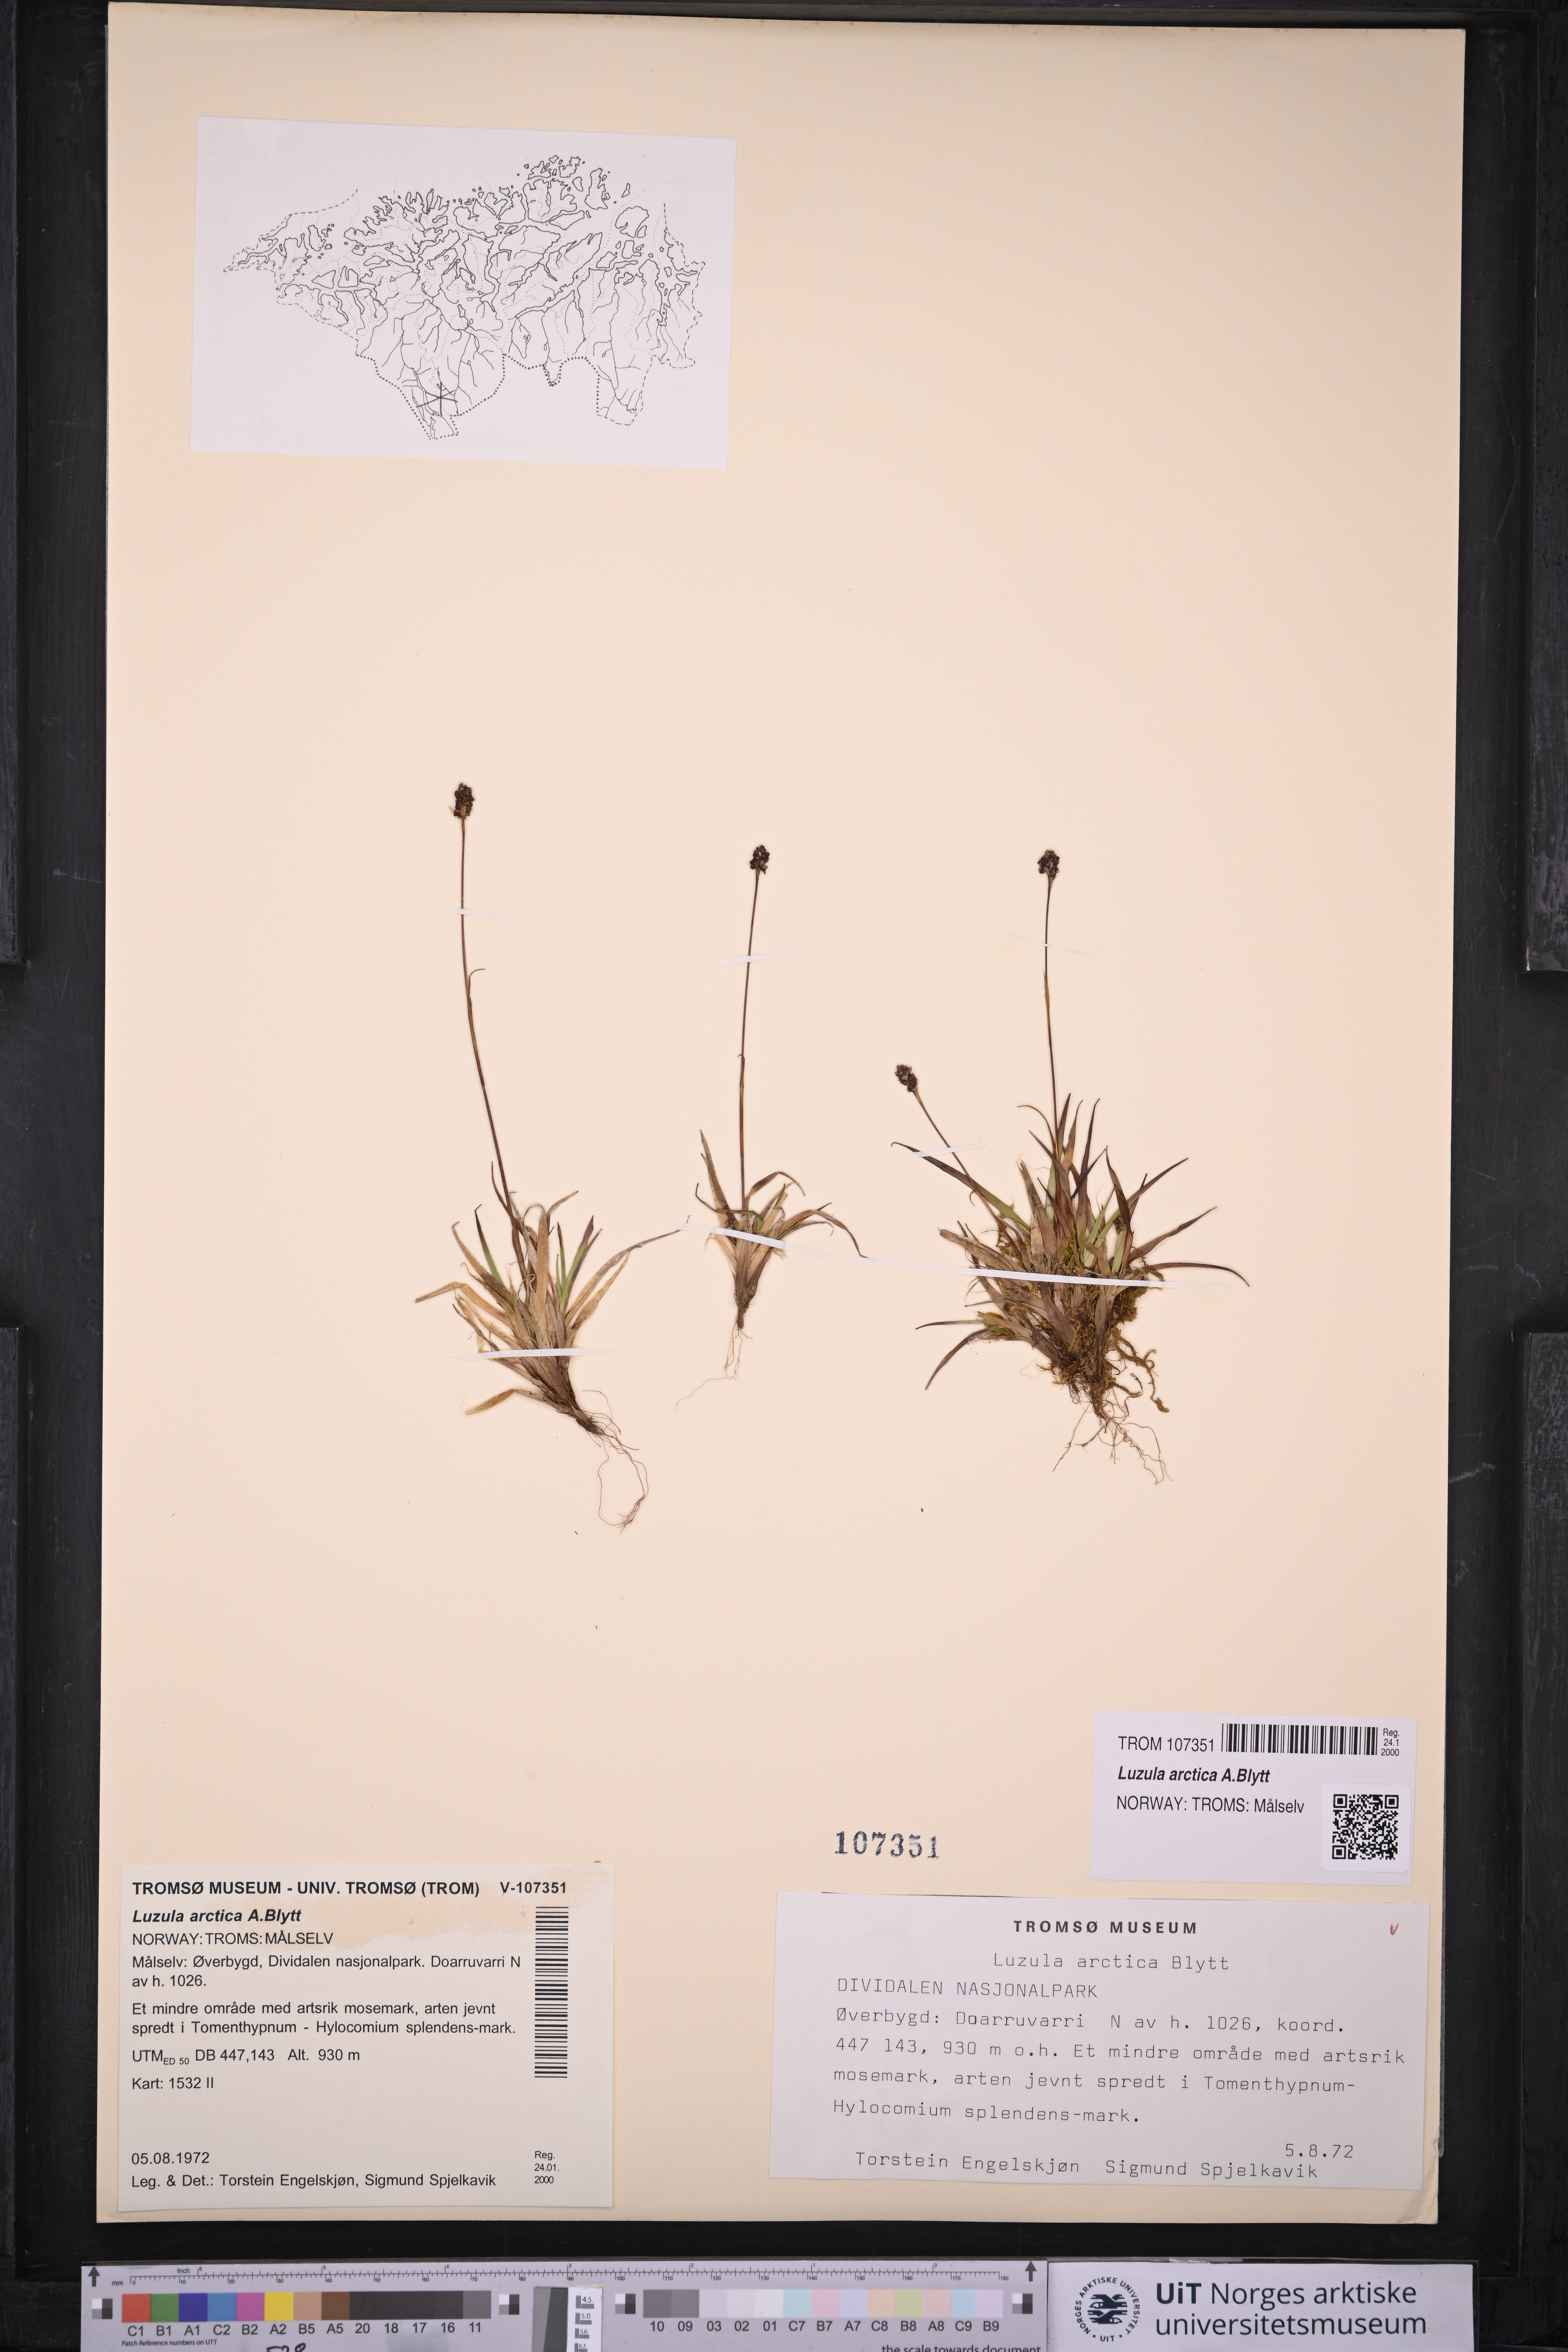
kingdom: Plantae
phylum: Tracheophyta
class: Liliopsida
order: Poales
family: Juncaceae
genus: Luzula
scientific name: Luzula nivalis
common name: Arctic woodrush
